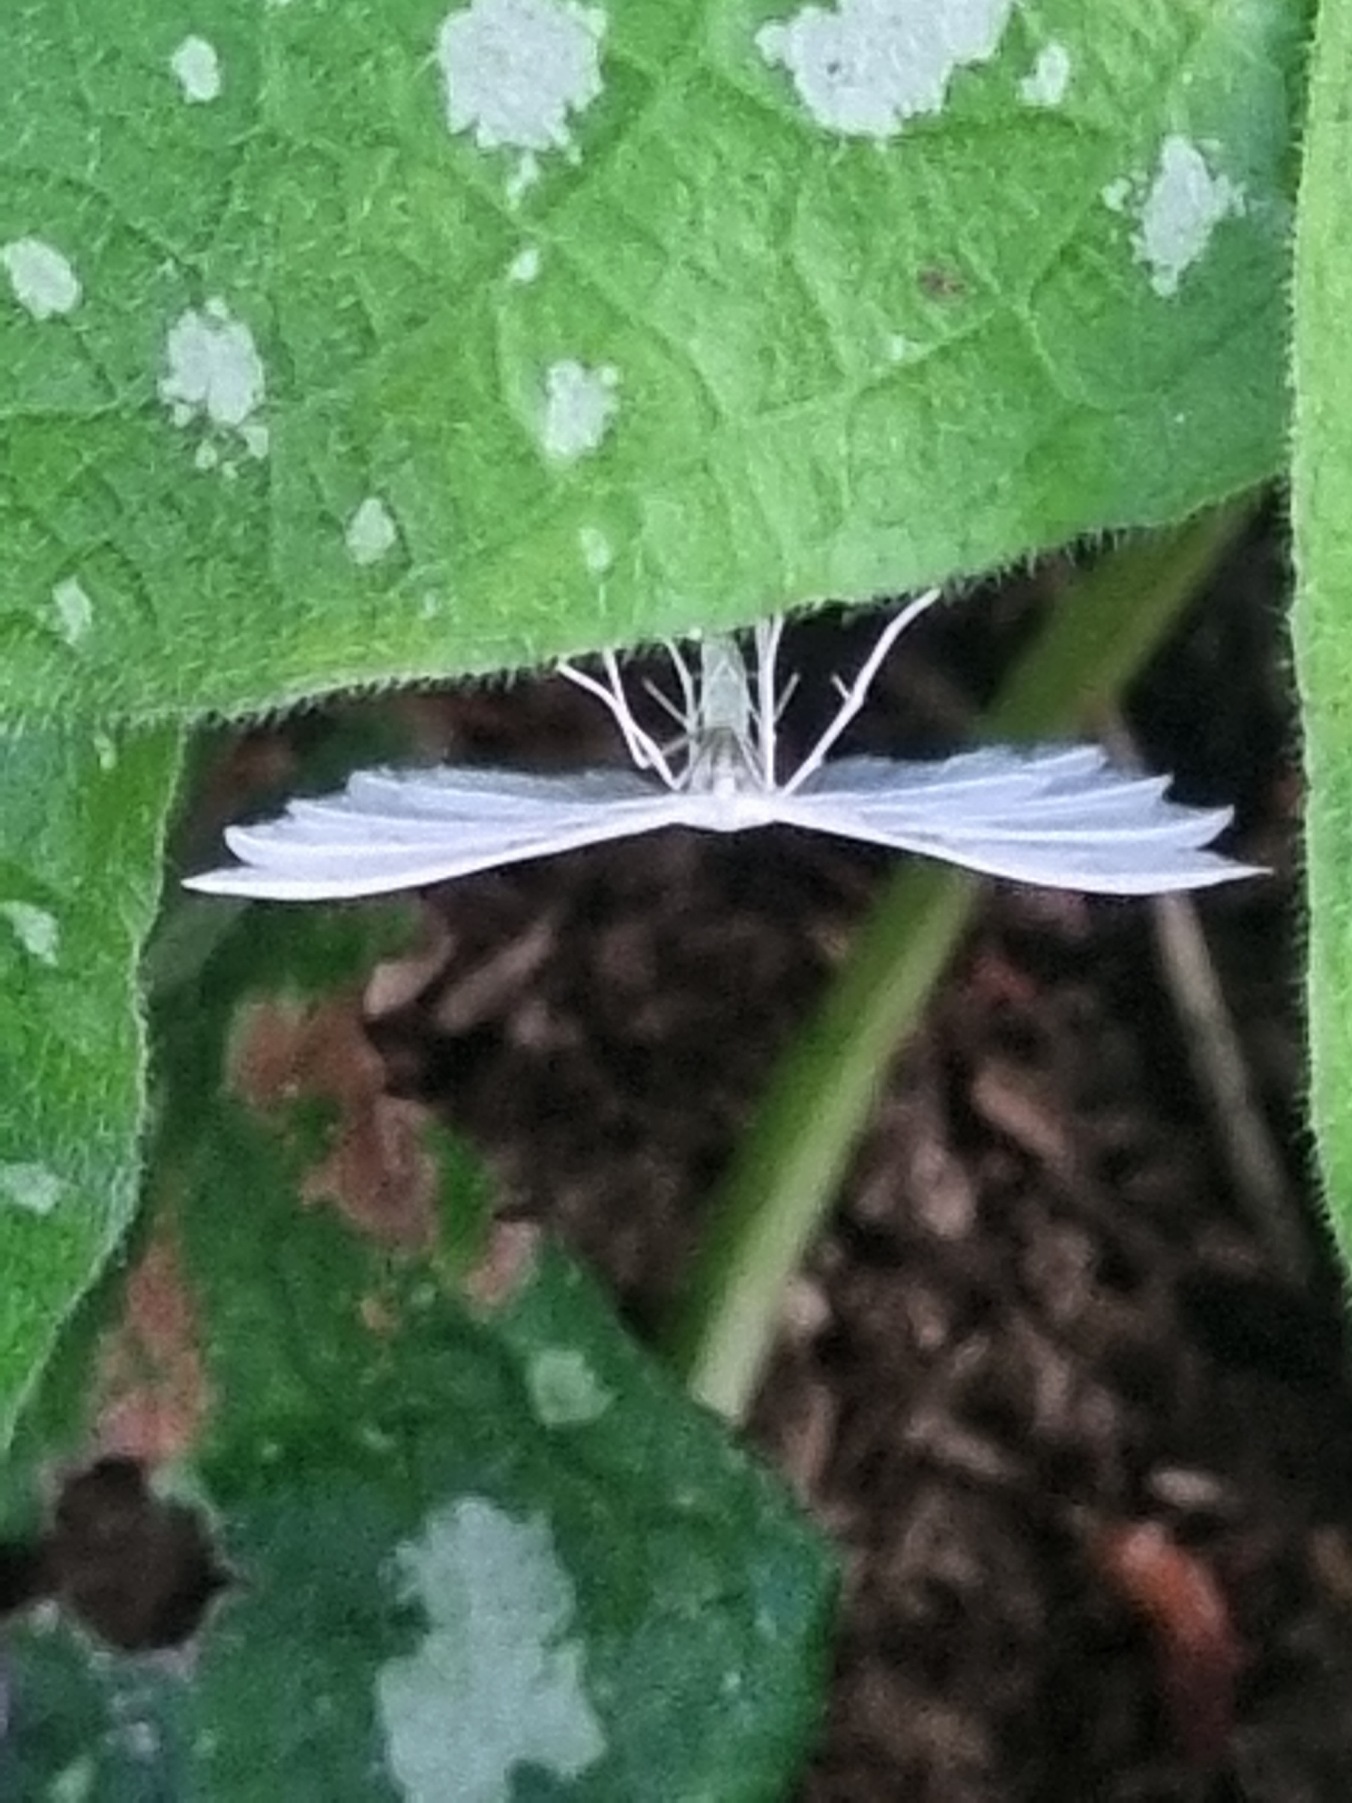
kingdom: Animalia
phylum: Arthropoda
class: Insecta
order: Lepidoptera
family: Pterophoridae
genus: Pterophorus
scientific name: Pterophorus pentadactyla
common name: Hvidt fjermøl
